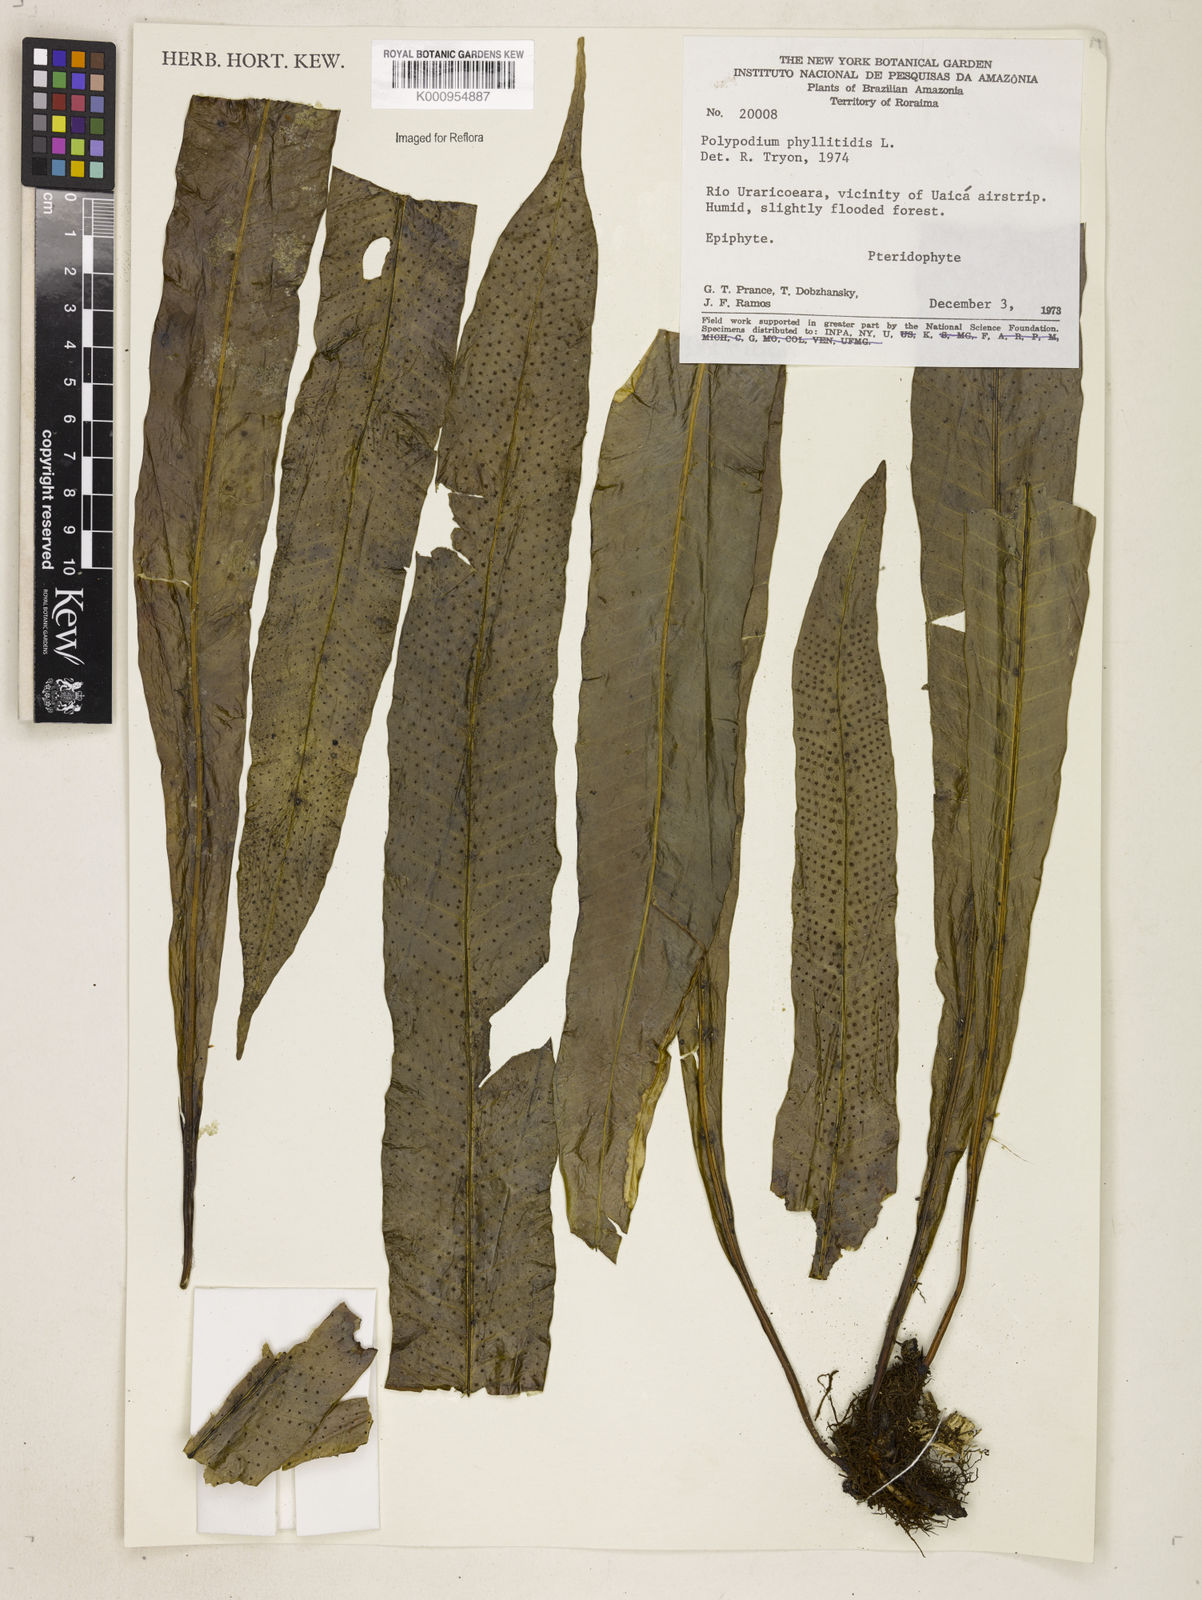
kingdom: Plantae
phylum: Tracheophyta
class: Polypodiopsida
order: Polypodiales
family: Polypodiaceae
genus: Campyloneurum
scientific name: Campyloneurum phyllitidis
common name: Cow-tongue fern
